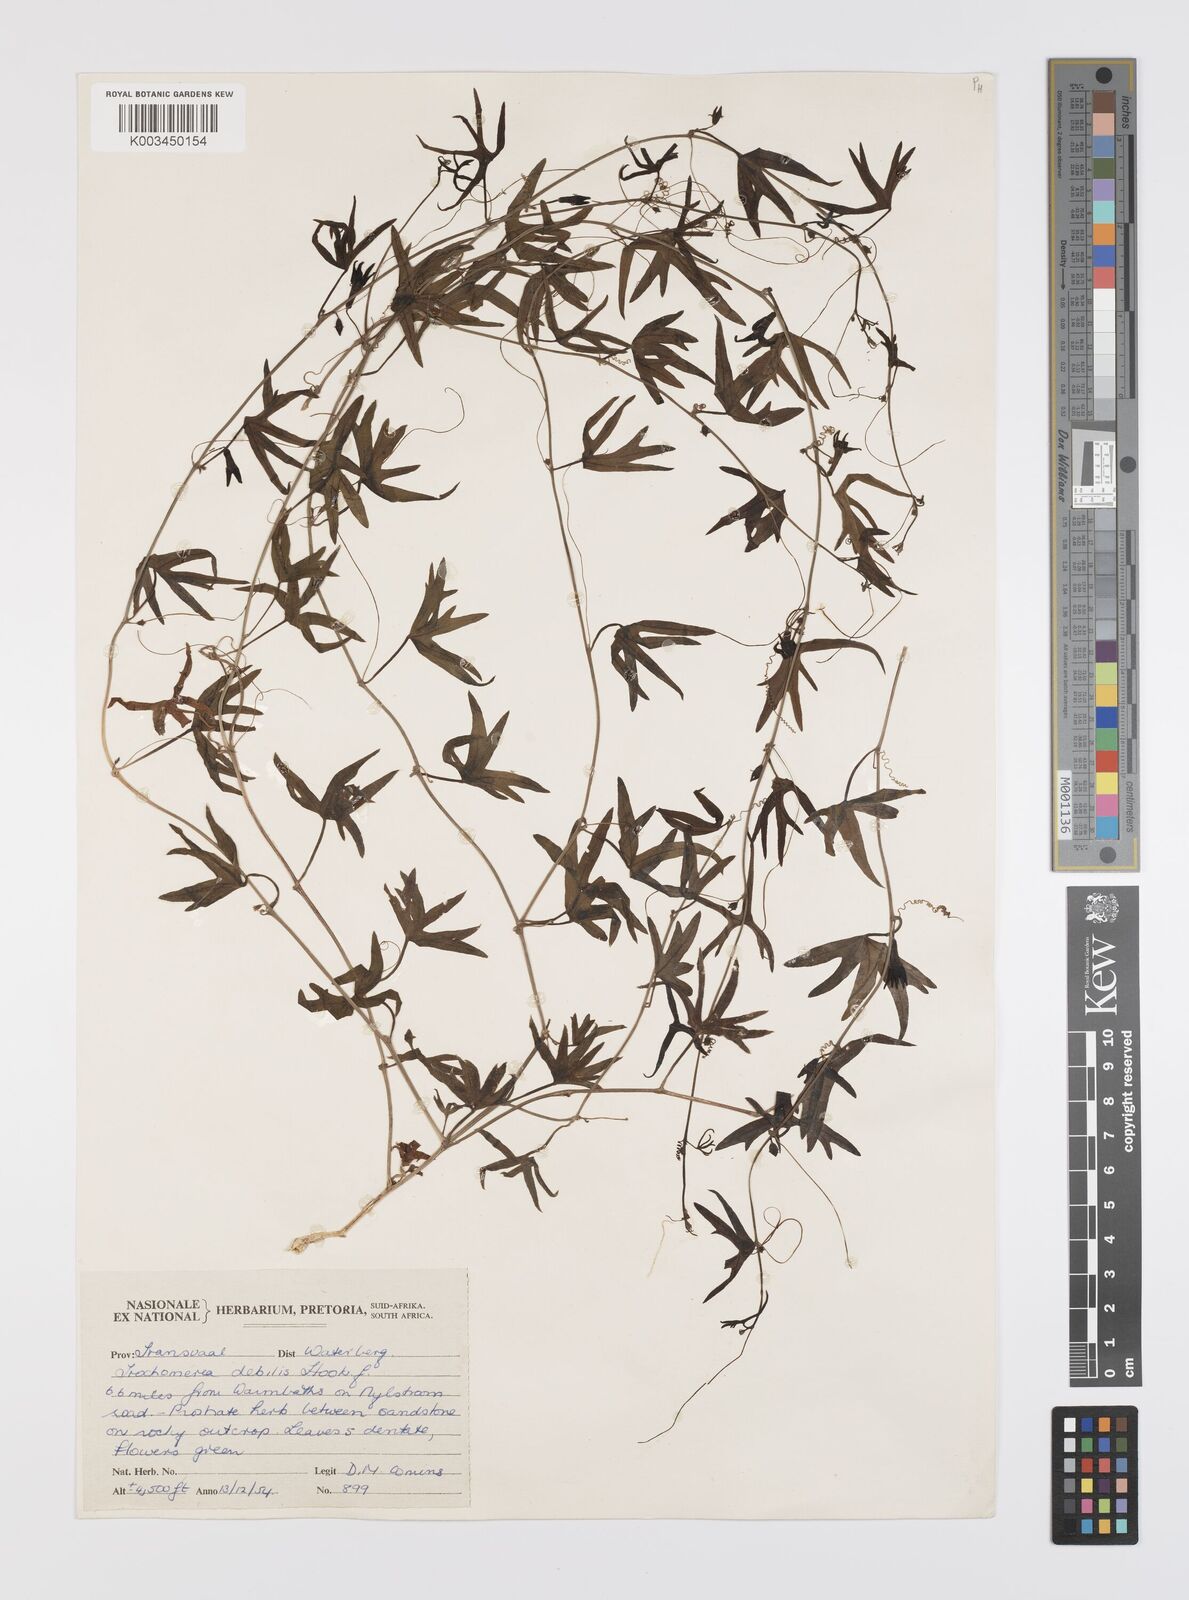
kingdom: Plantae
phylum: Tracheophyta
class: Magnoliopsida
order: Cucurbitales
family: Cucurbitaceae
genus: Trochomeria
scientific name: Trochomeria debilis
